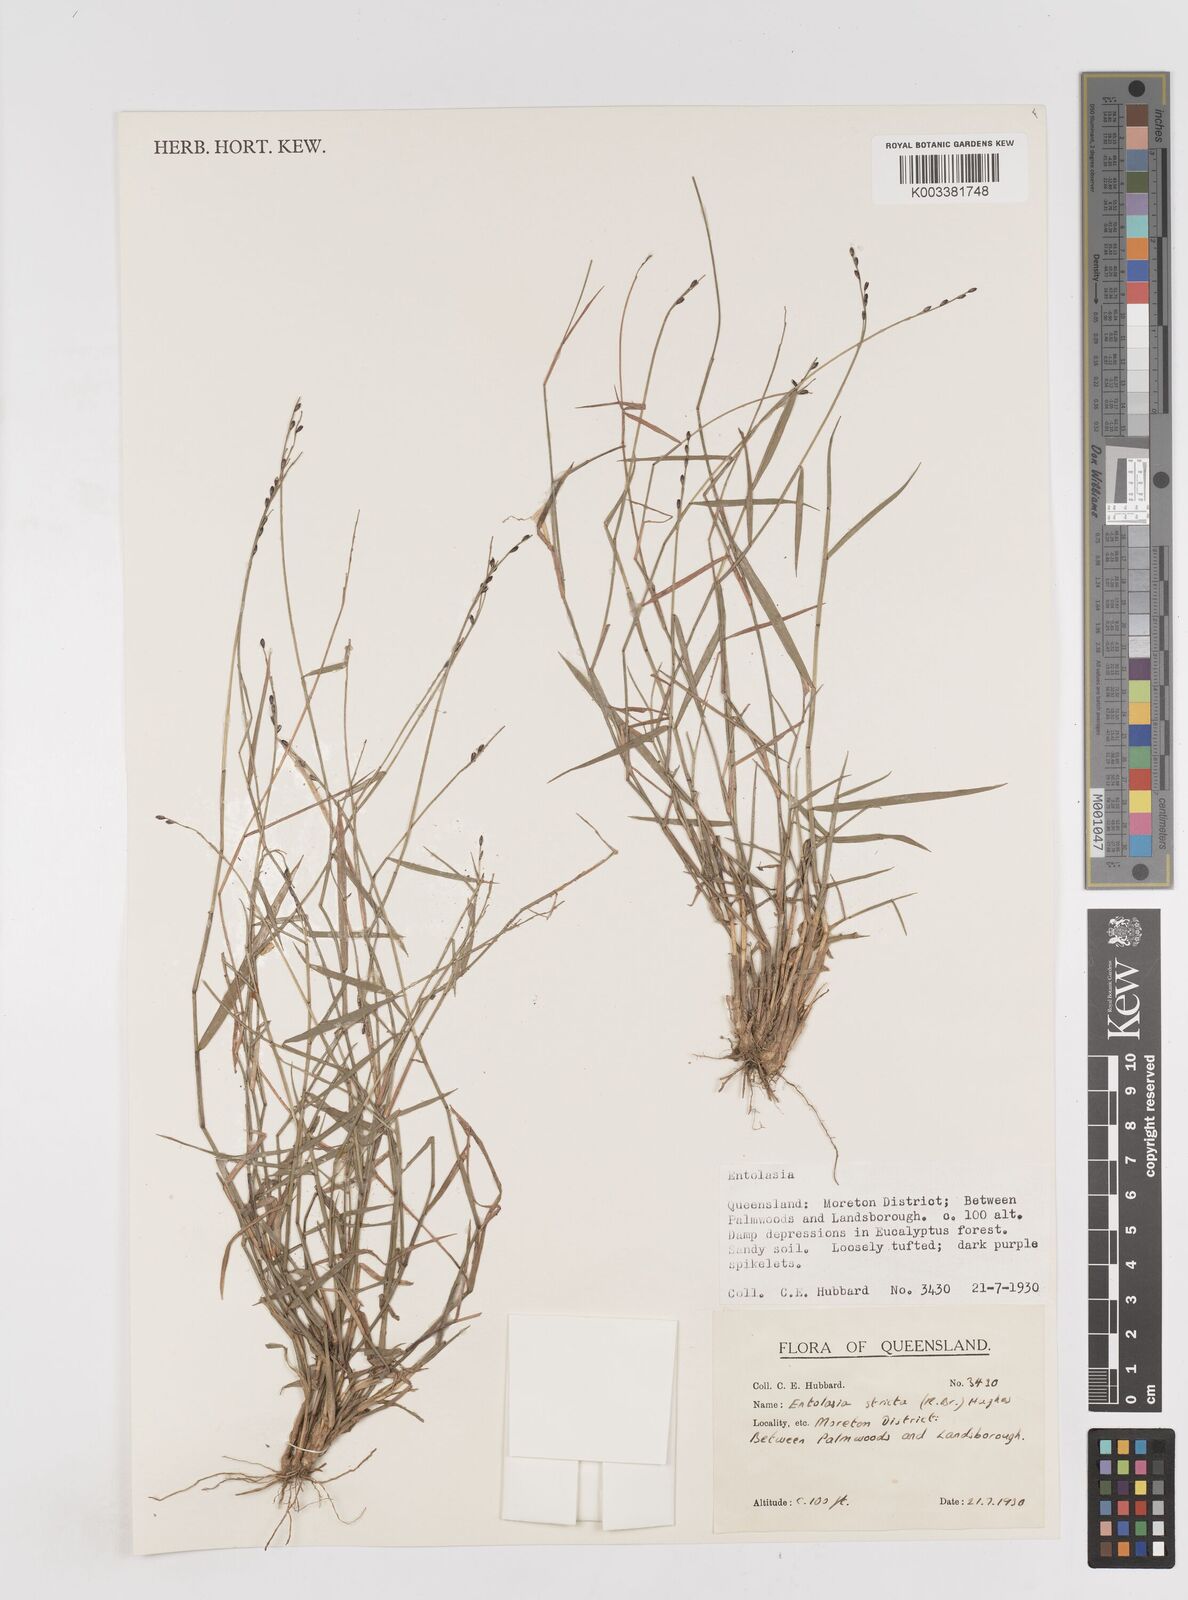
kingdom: Plantae
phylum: Tracheophyta
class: Liliopsida
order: Poales
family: Poaceae
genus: Entolasia
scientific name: Entolasia stricta
